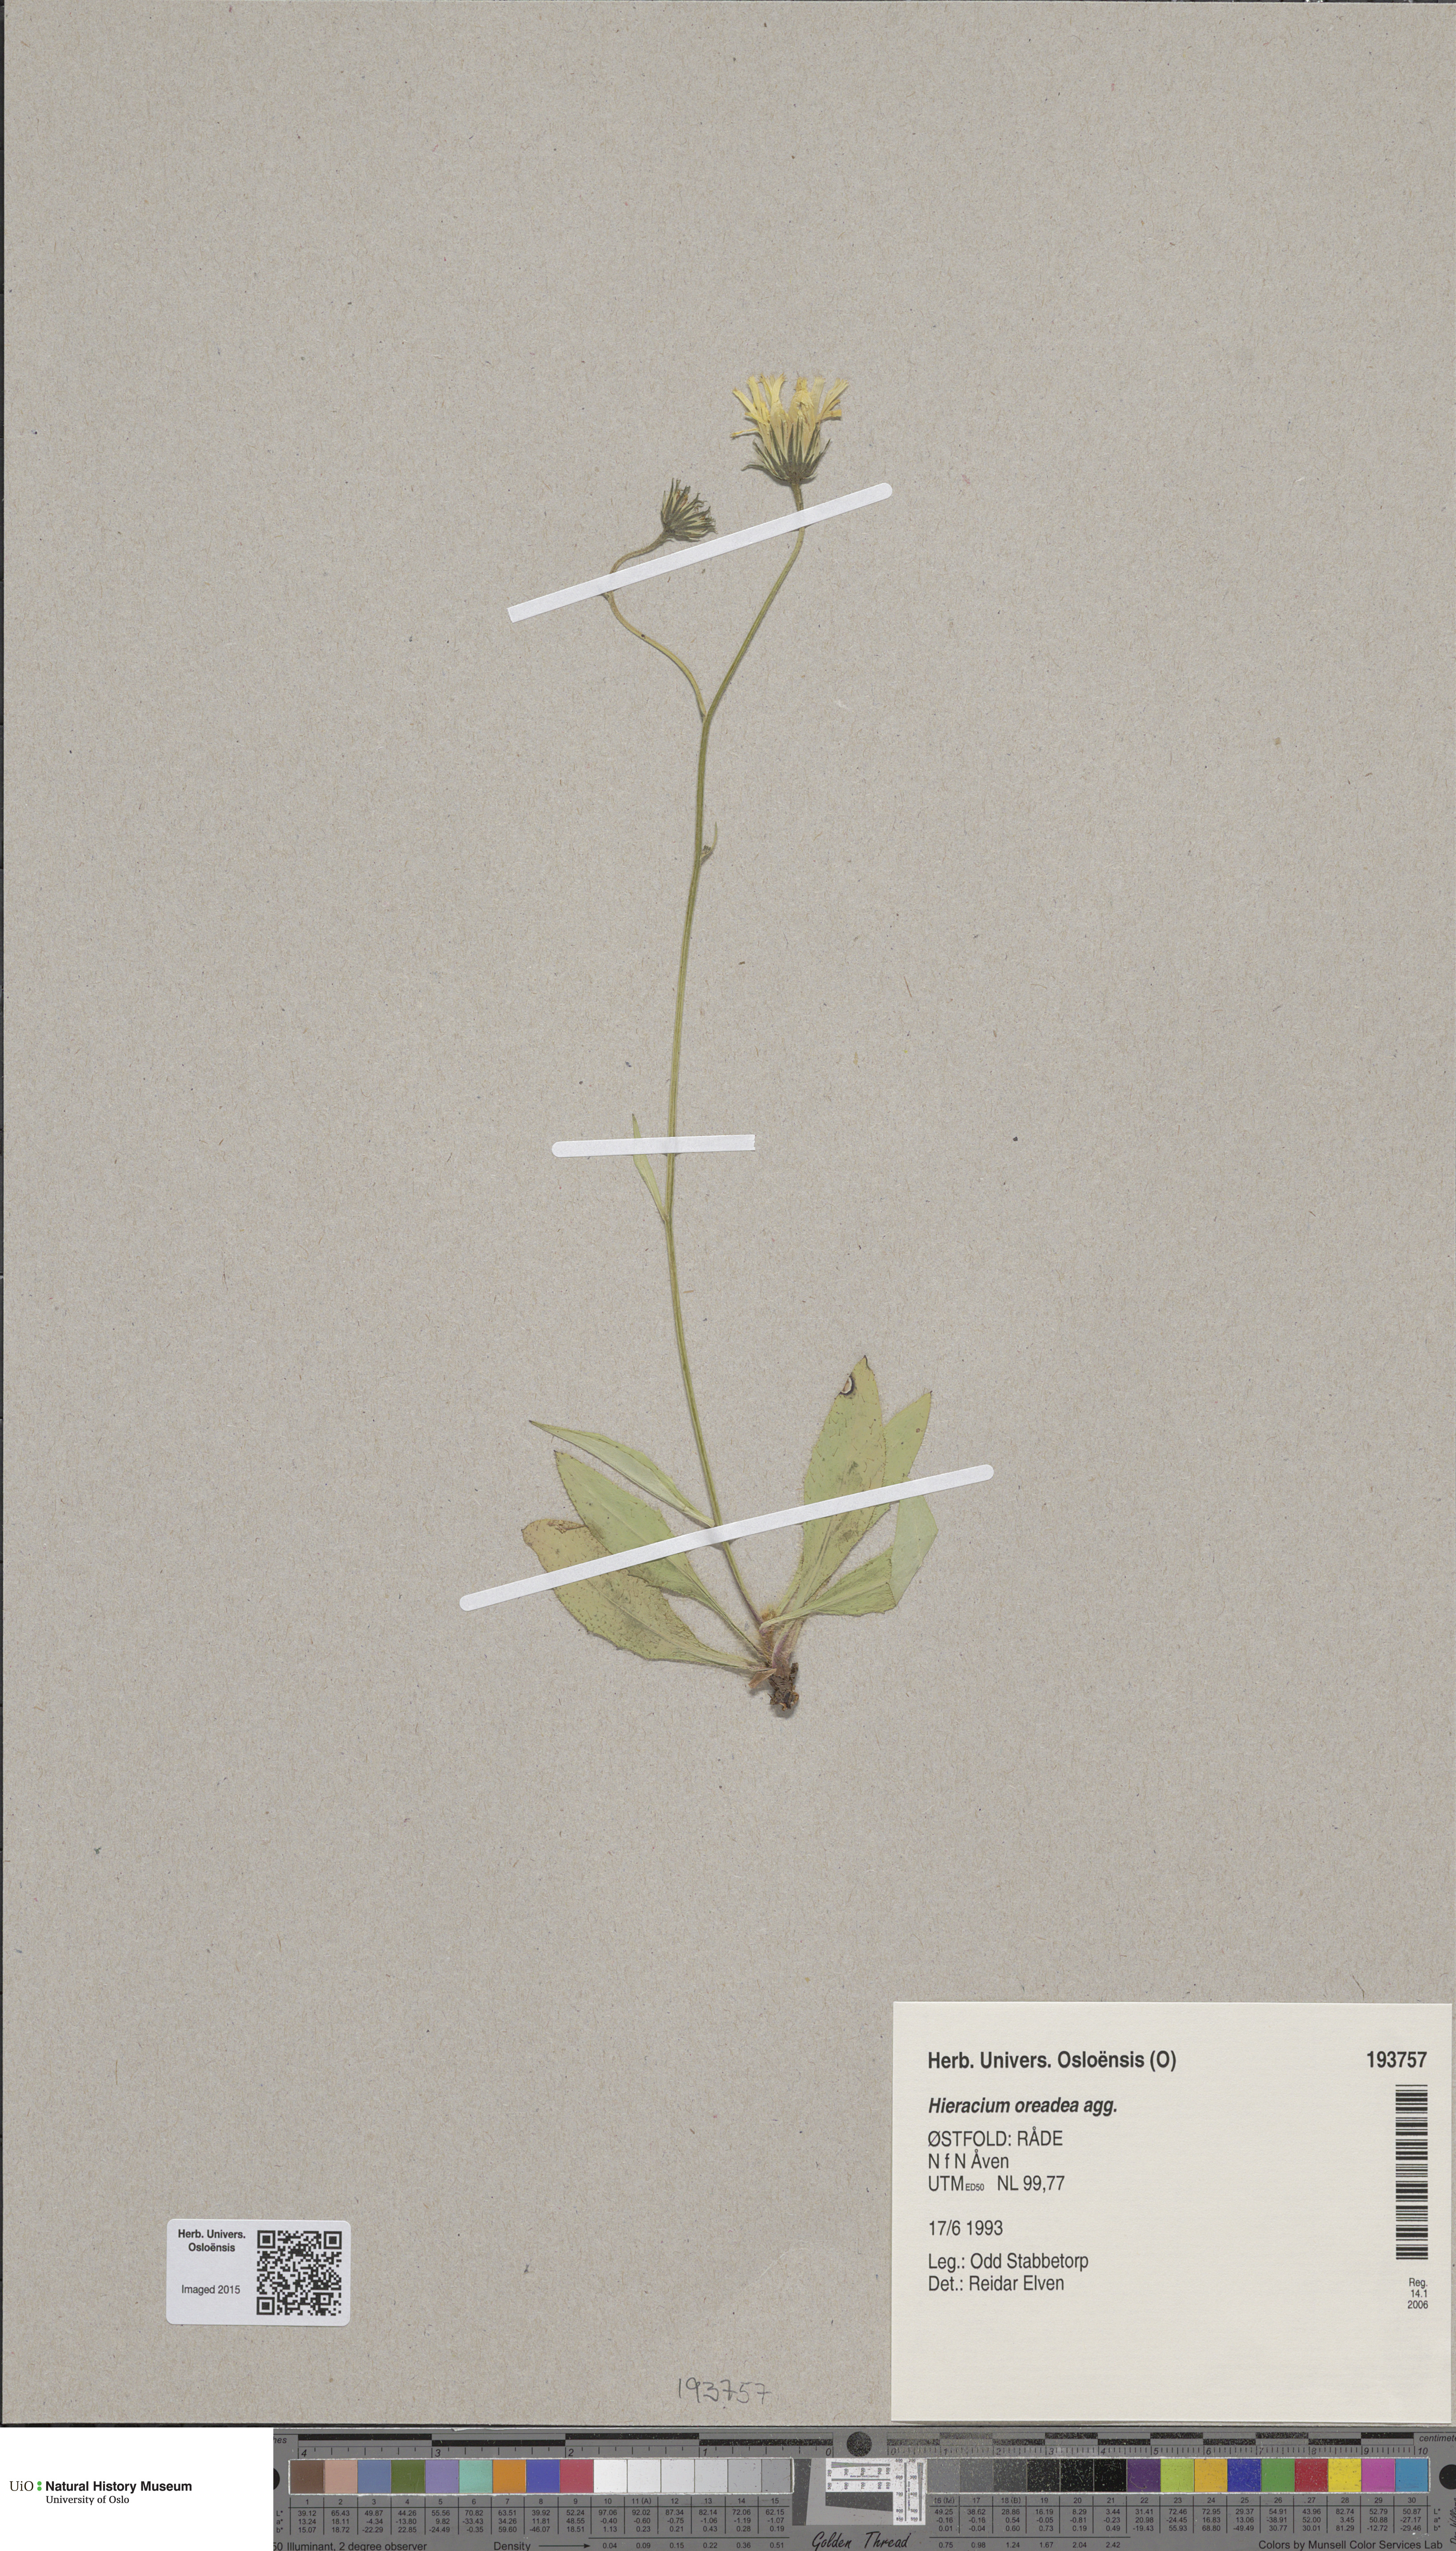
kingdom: Plantae
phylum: Tracheophyta
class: Magnoliopsida
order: Asterales
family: Asteraceae
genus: Hieracium
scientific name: Hieracium
